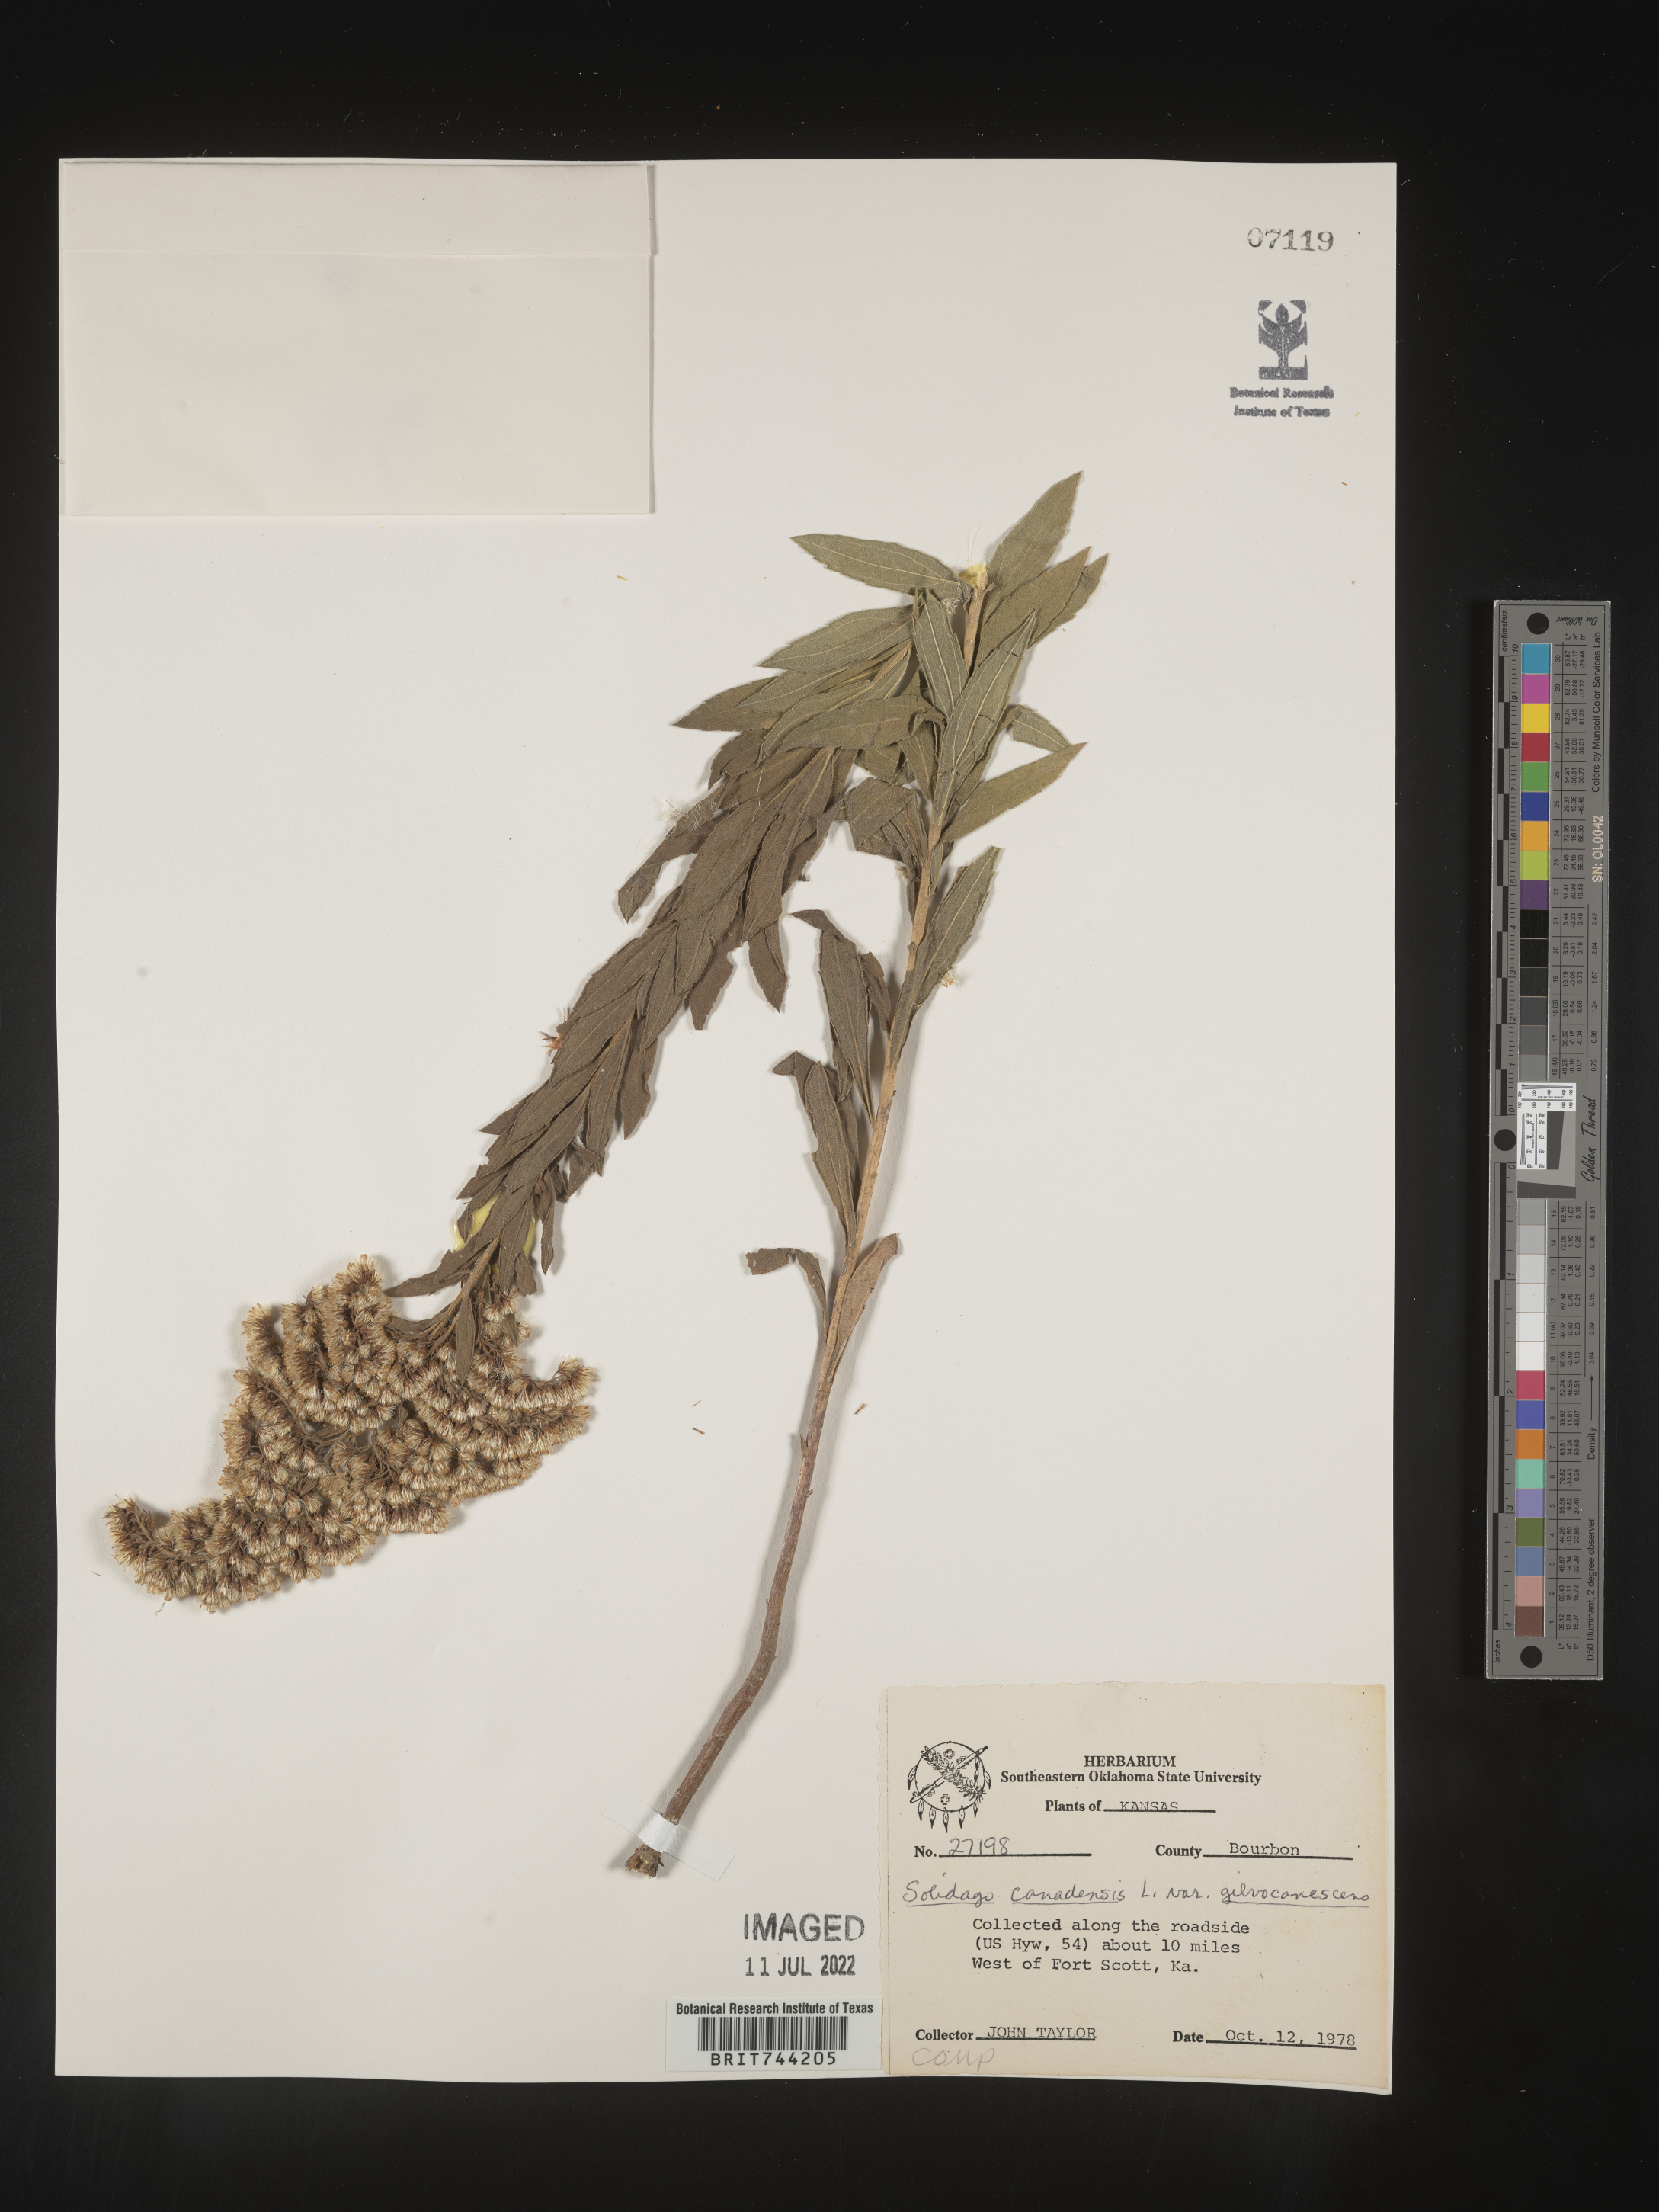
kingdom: Plantae
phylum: Tracheophyta
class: Magnoliopsida
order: Asterales
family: Asteraceae
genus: Solidago
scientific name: Solidago altissima
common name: Late goldenrod
